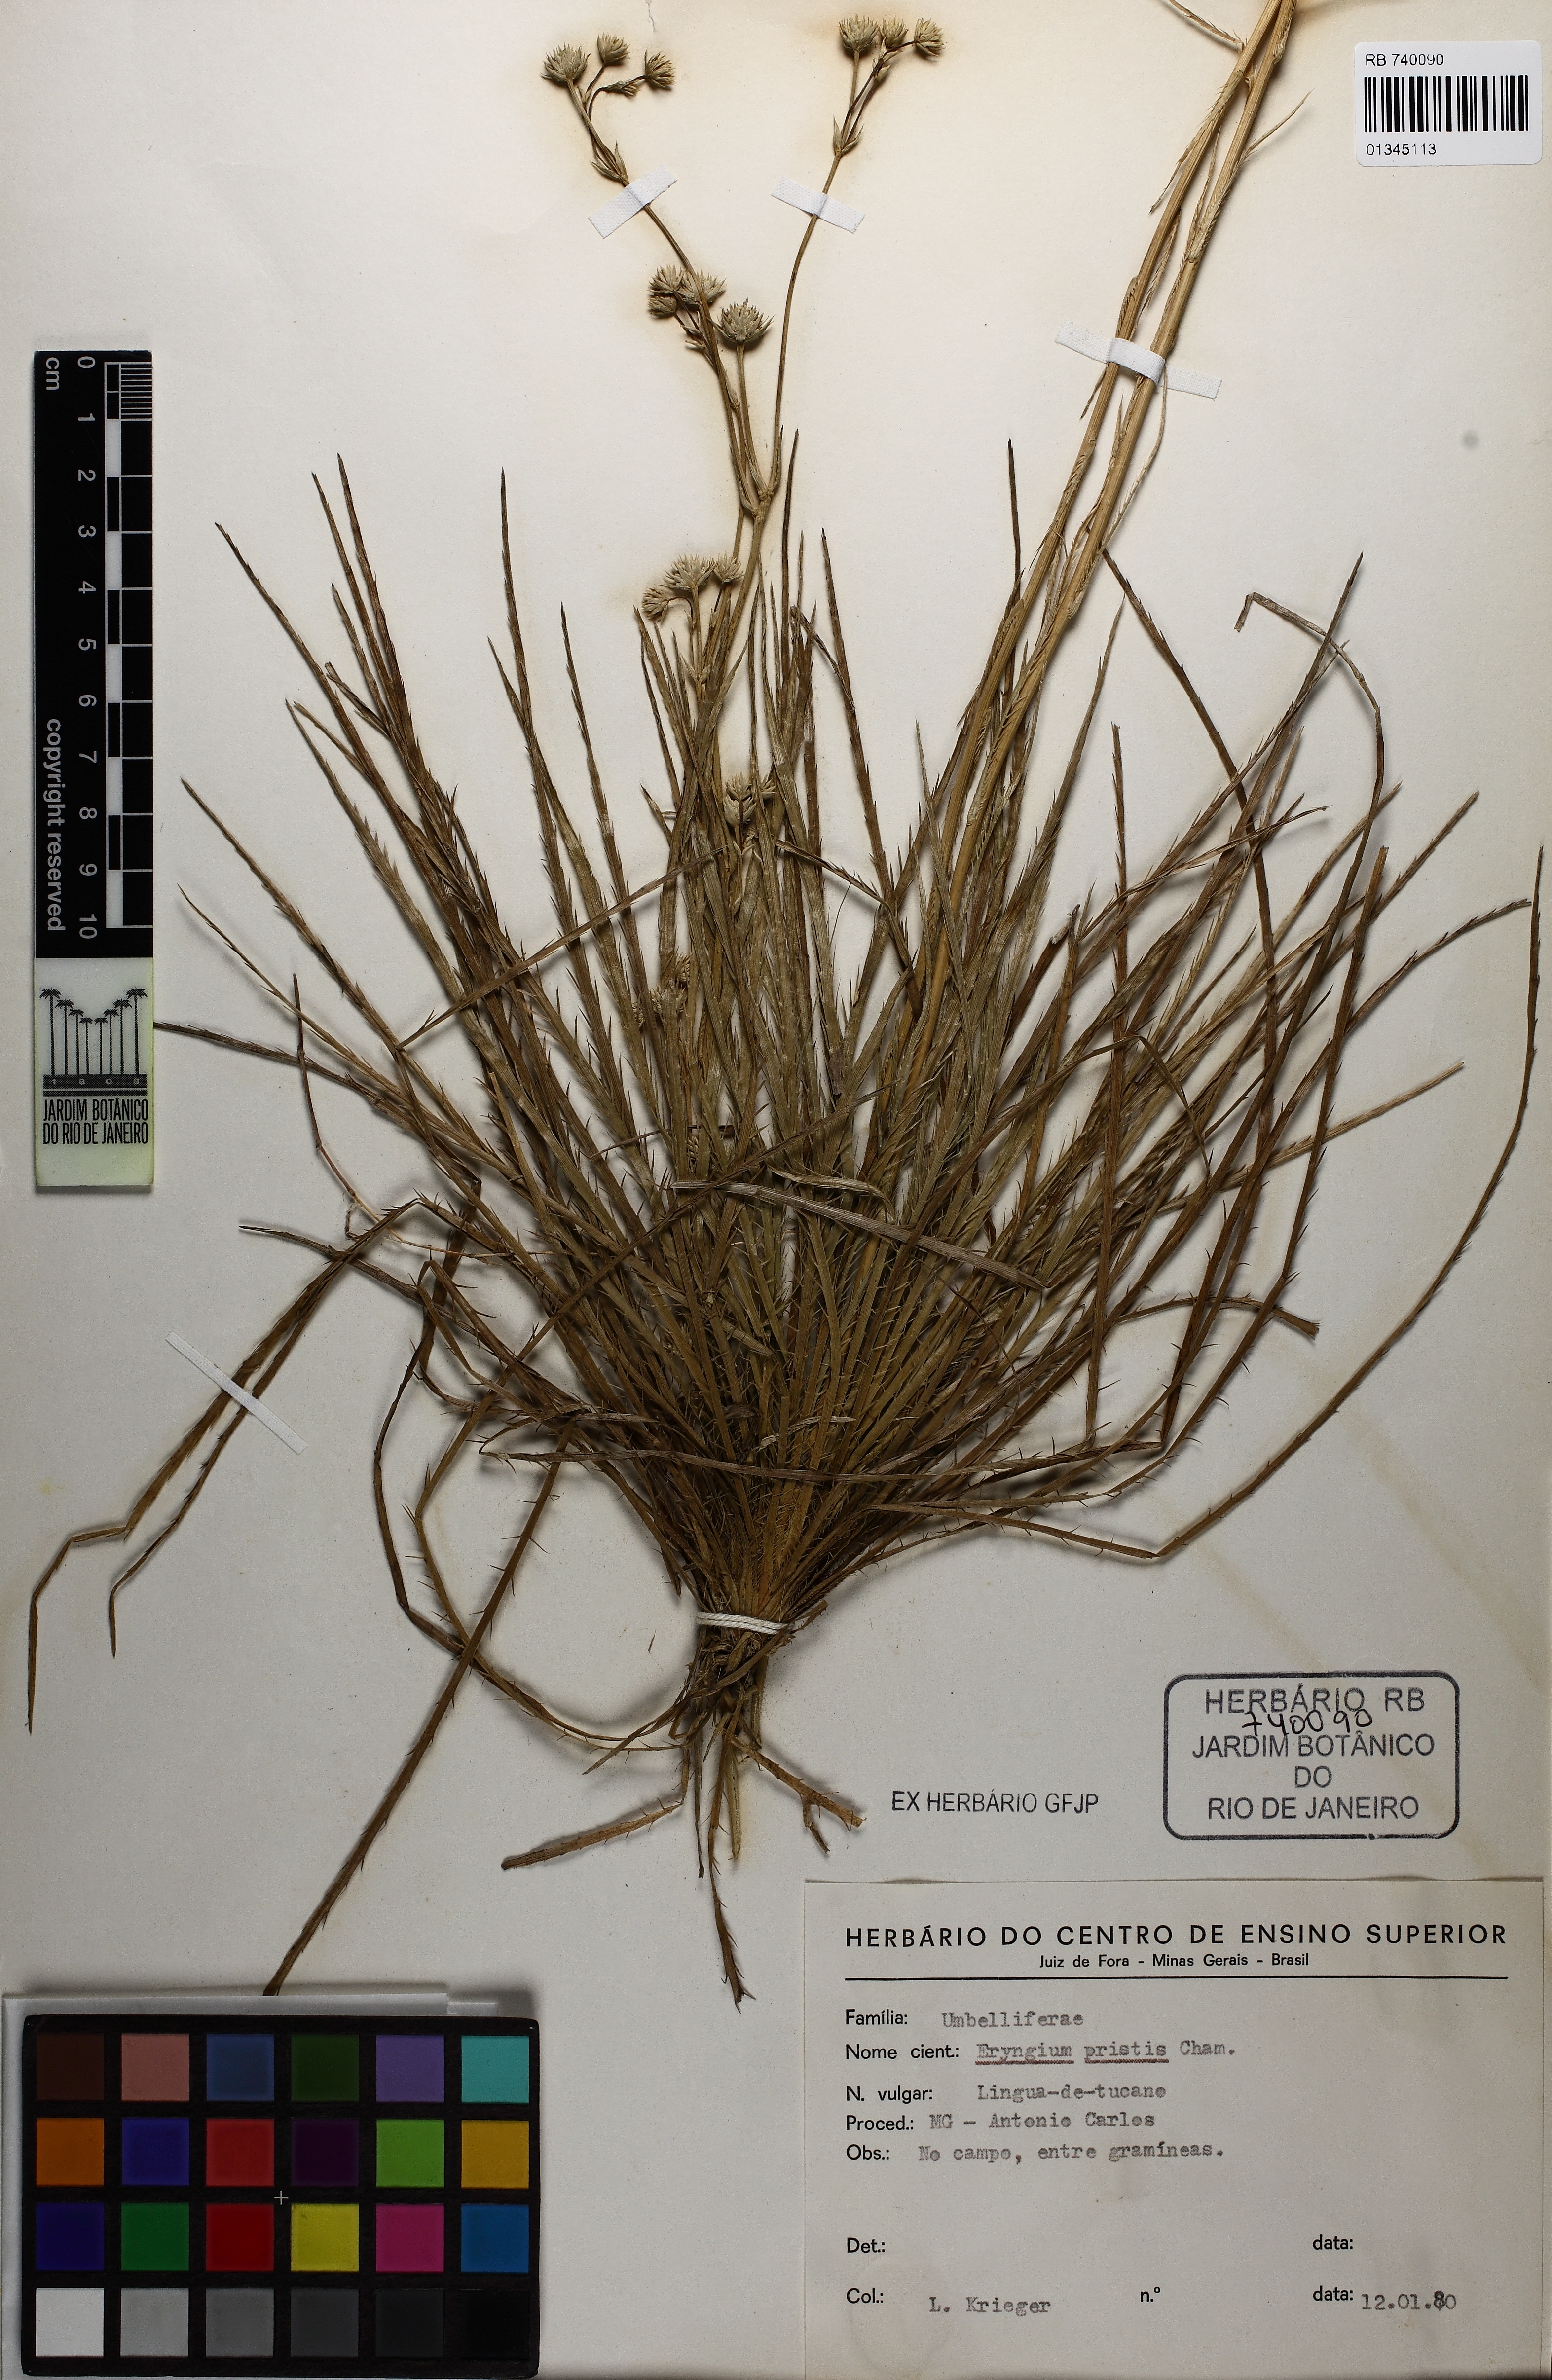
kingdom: Plantae
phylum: Tracheophyta
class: Magnoliopsida
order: Apiales
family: Apiaceae
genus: Eryngium
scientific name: Eryngium pristis
